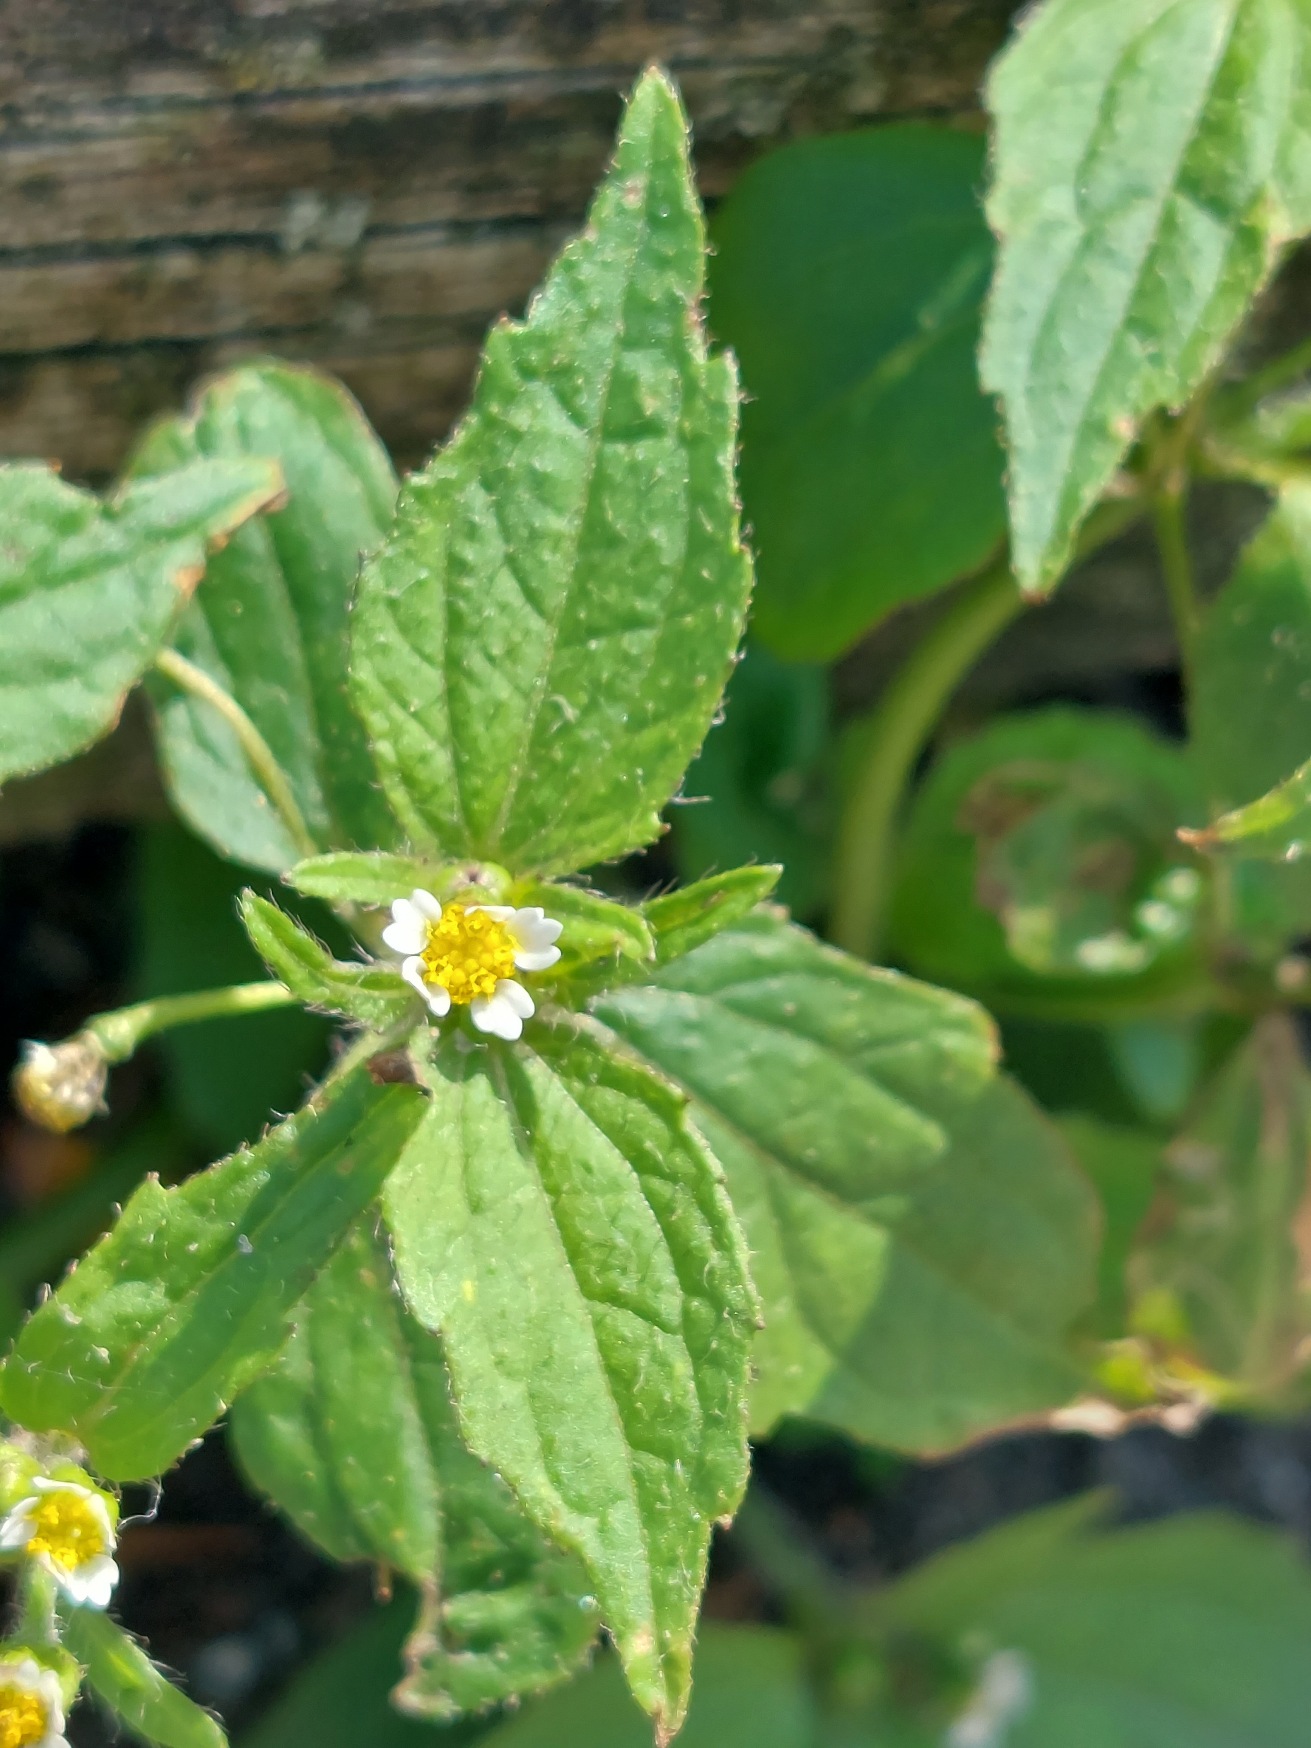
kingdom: Plantae
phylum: Tracheophyta
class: Magnoliopsida
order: Asterales
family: Asteraceae
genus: Galinsoga
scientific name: Galinsoga quadriradiata
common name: Kirtel-kortstråle
